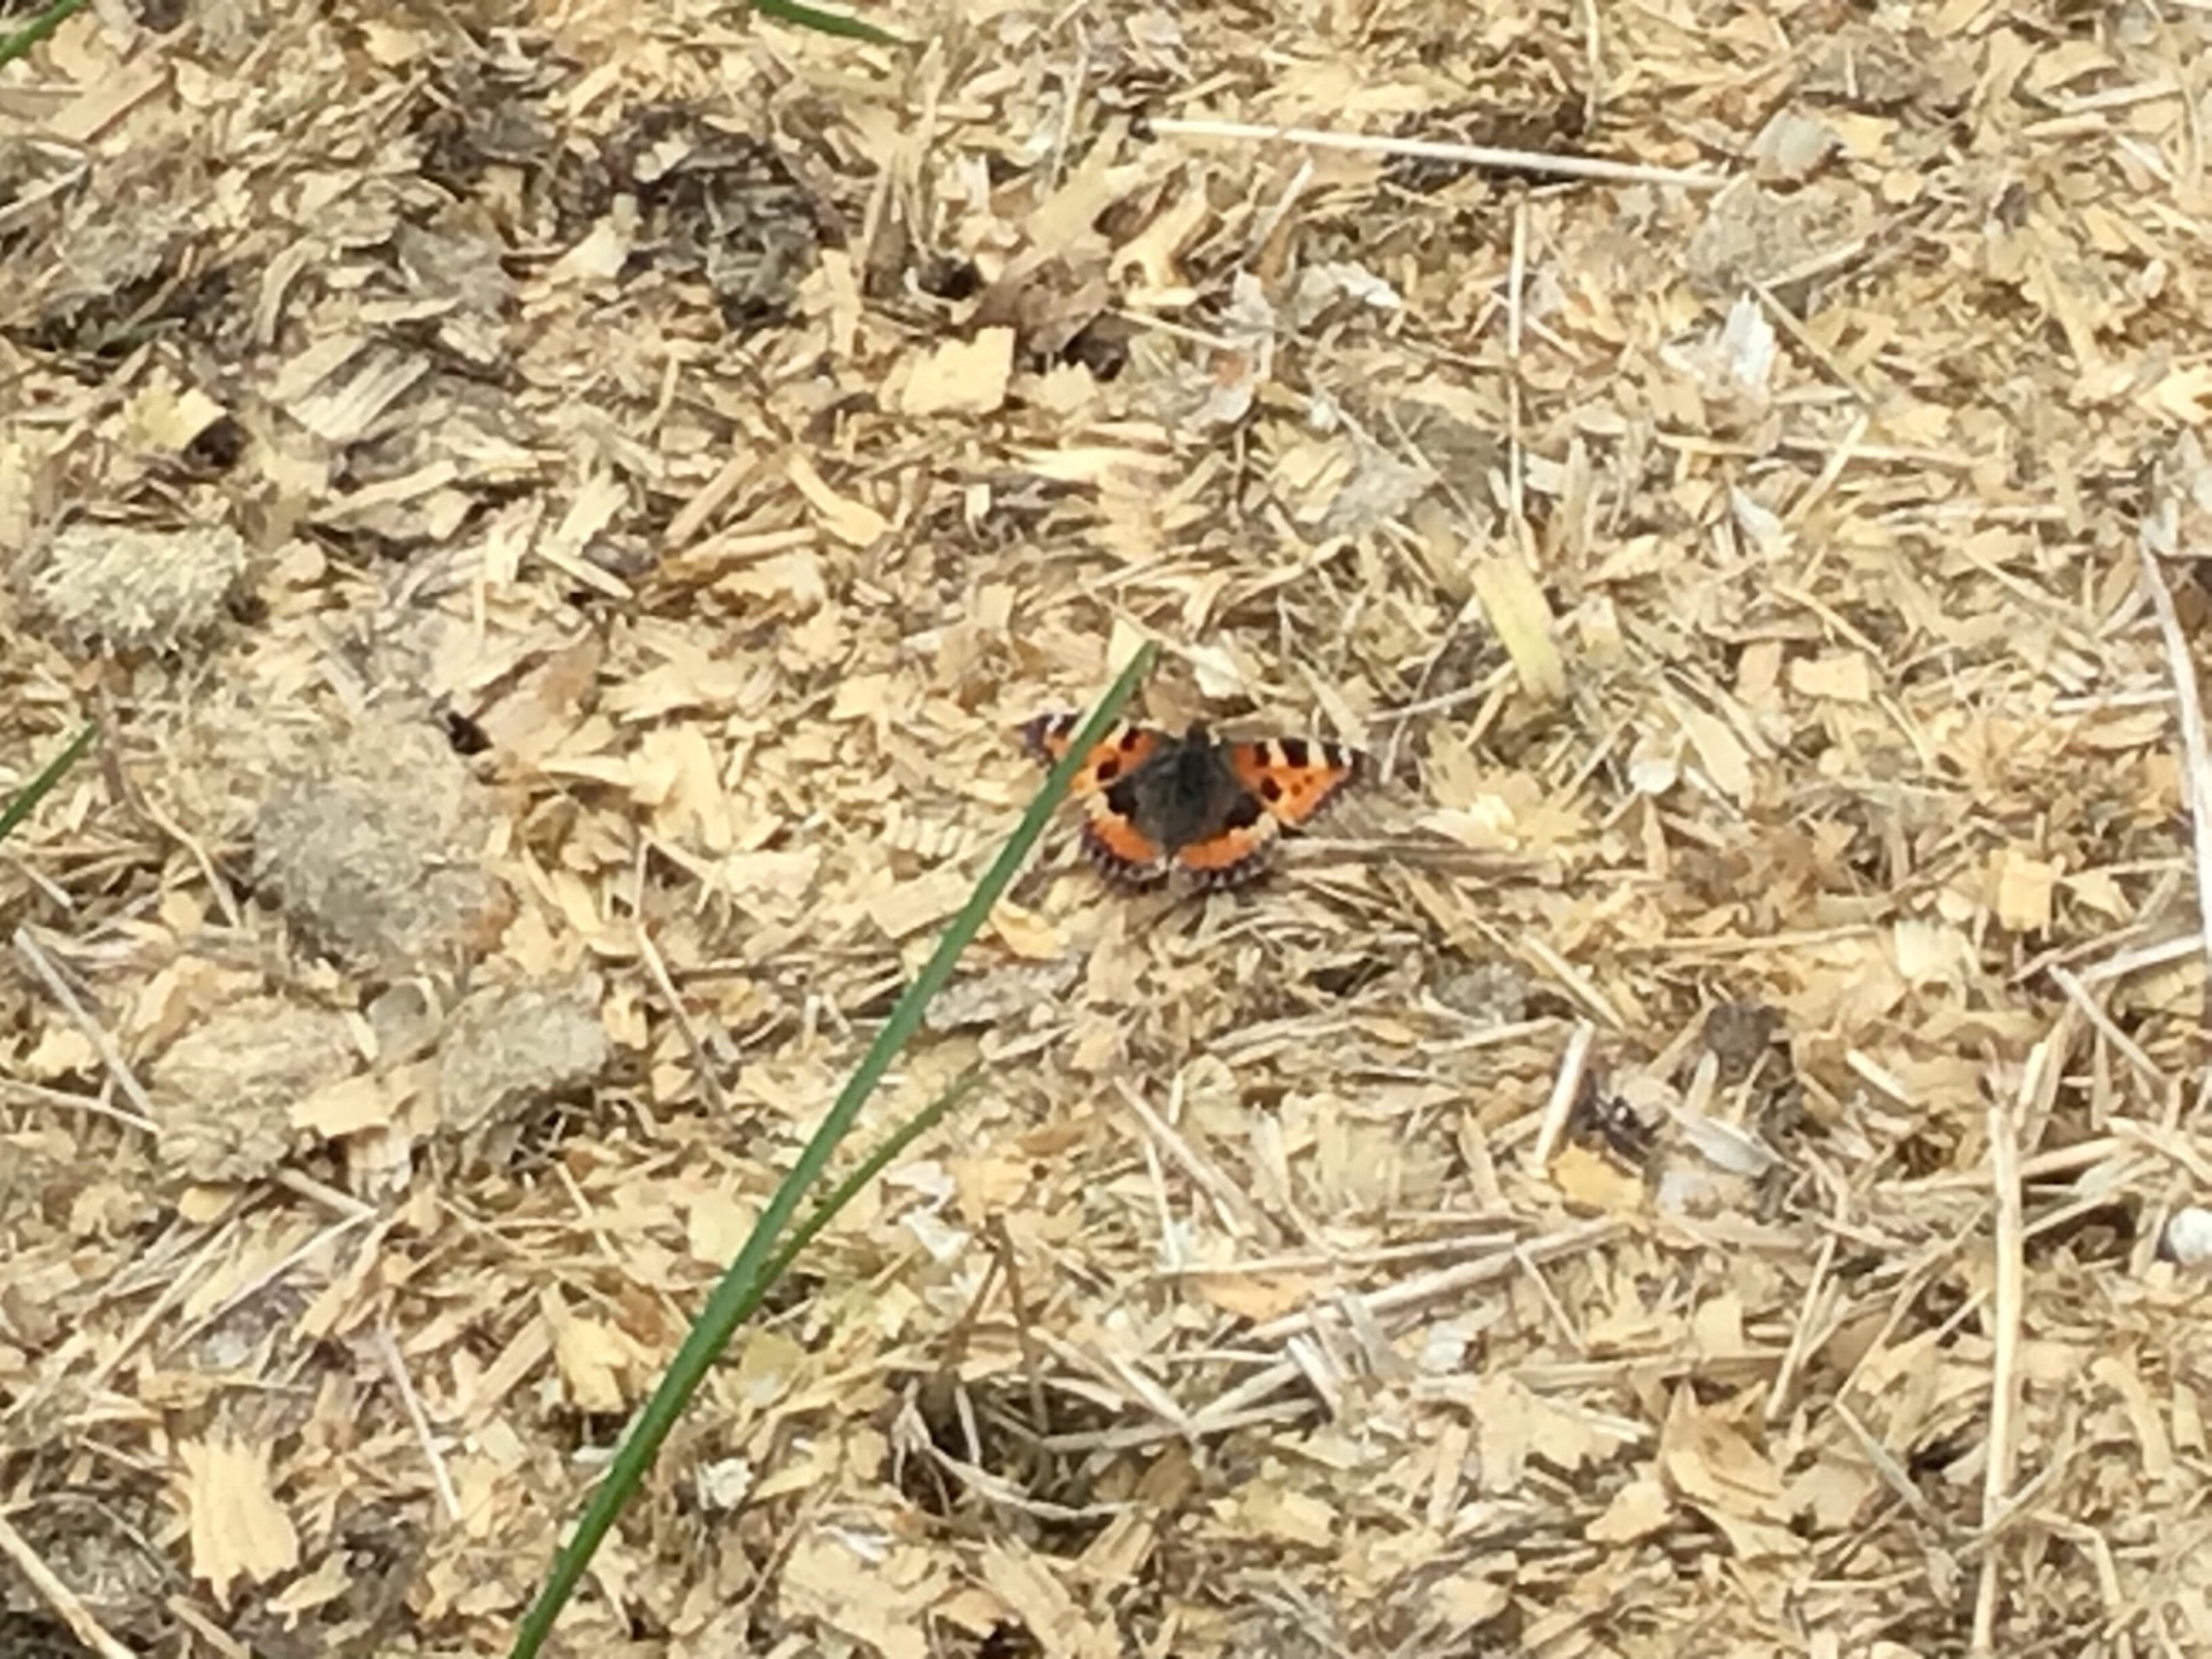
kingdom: Animalia
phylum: Arthropoda
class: Insecta
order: Lepidoptera
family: Nymphalidae
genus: Aglais
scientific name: Aglais urticae
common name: Nældens takvinge
